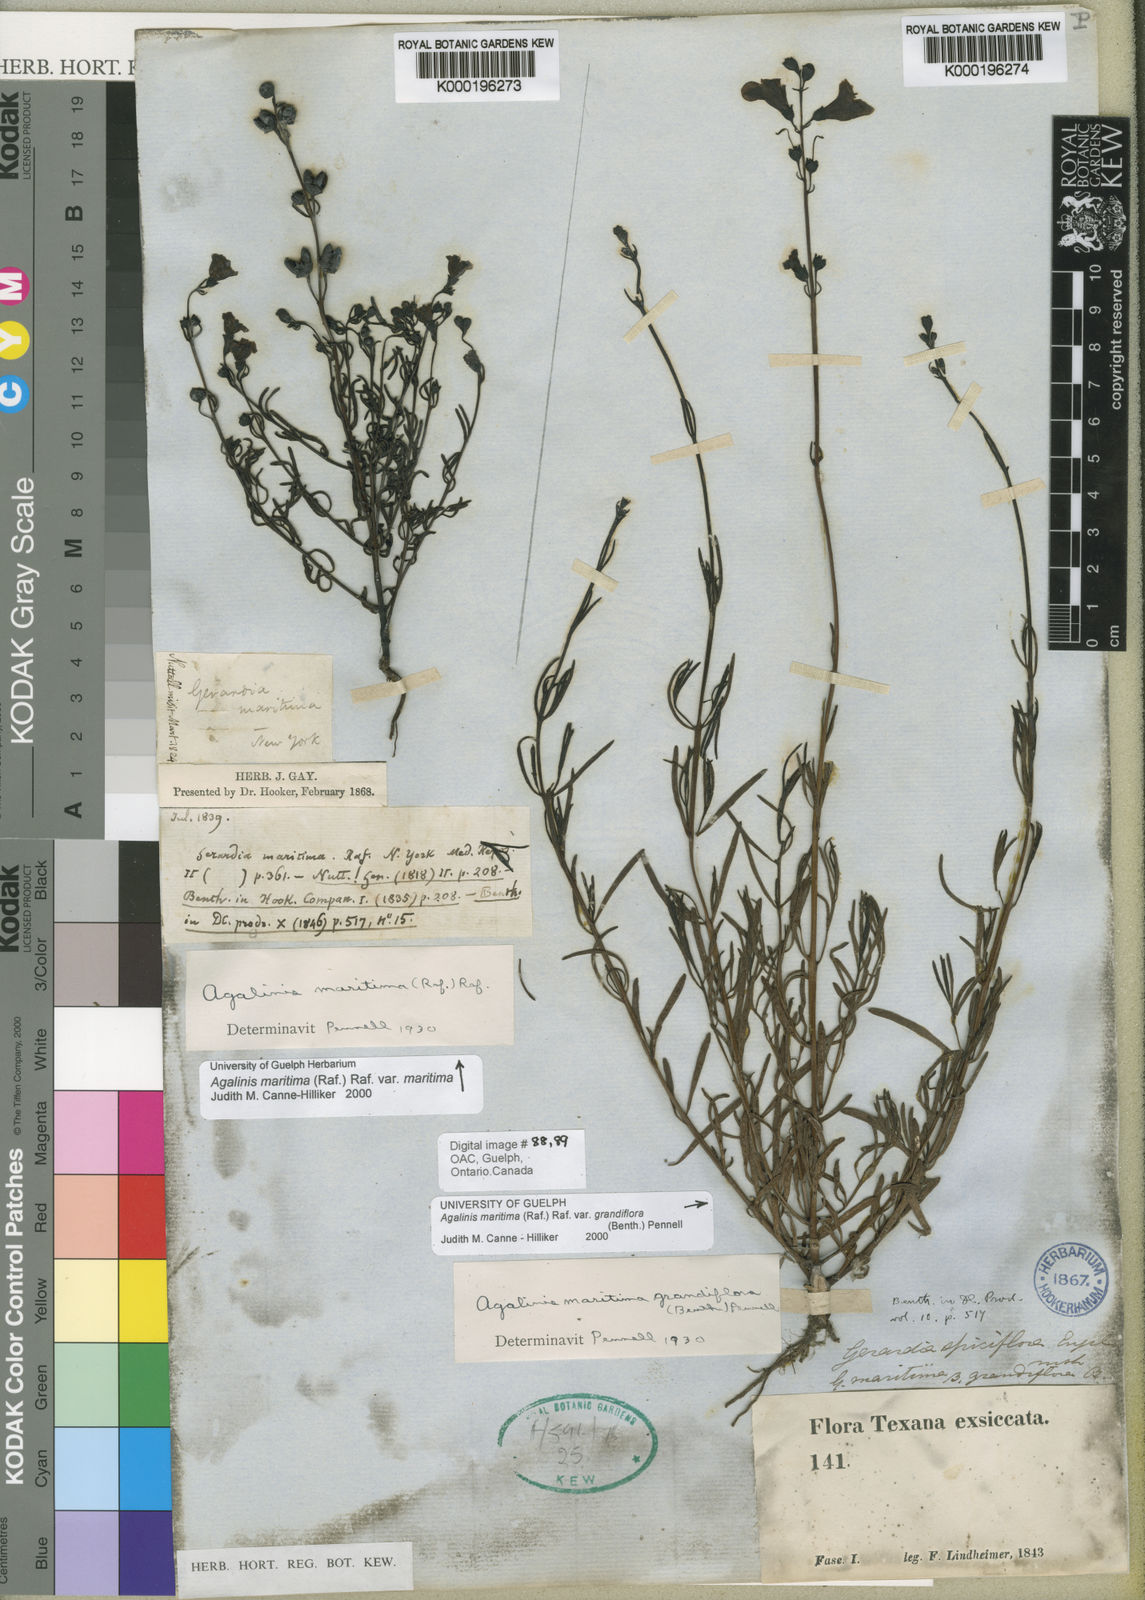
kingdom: Plantae
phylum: Tracheophyta
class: Magnoliopsida
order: Lamiales
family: Orobanchaceae
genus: Agalinis
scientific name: Agalinis maritima
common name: Saltmarsh agalinis
